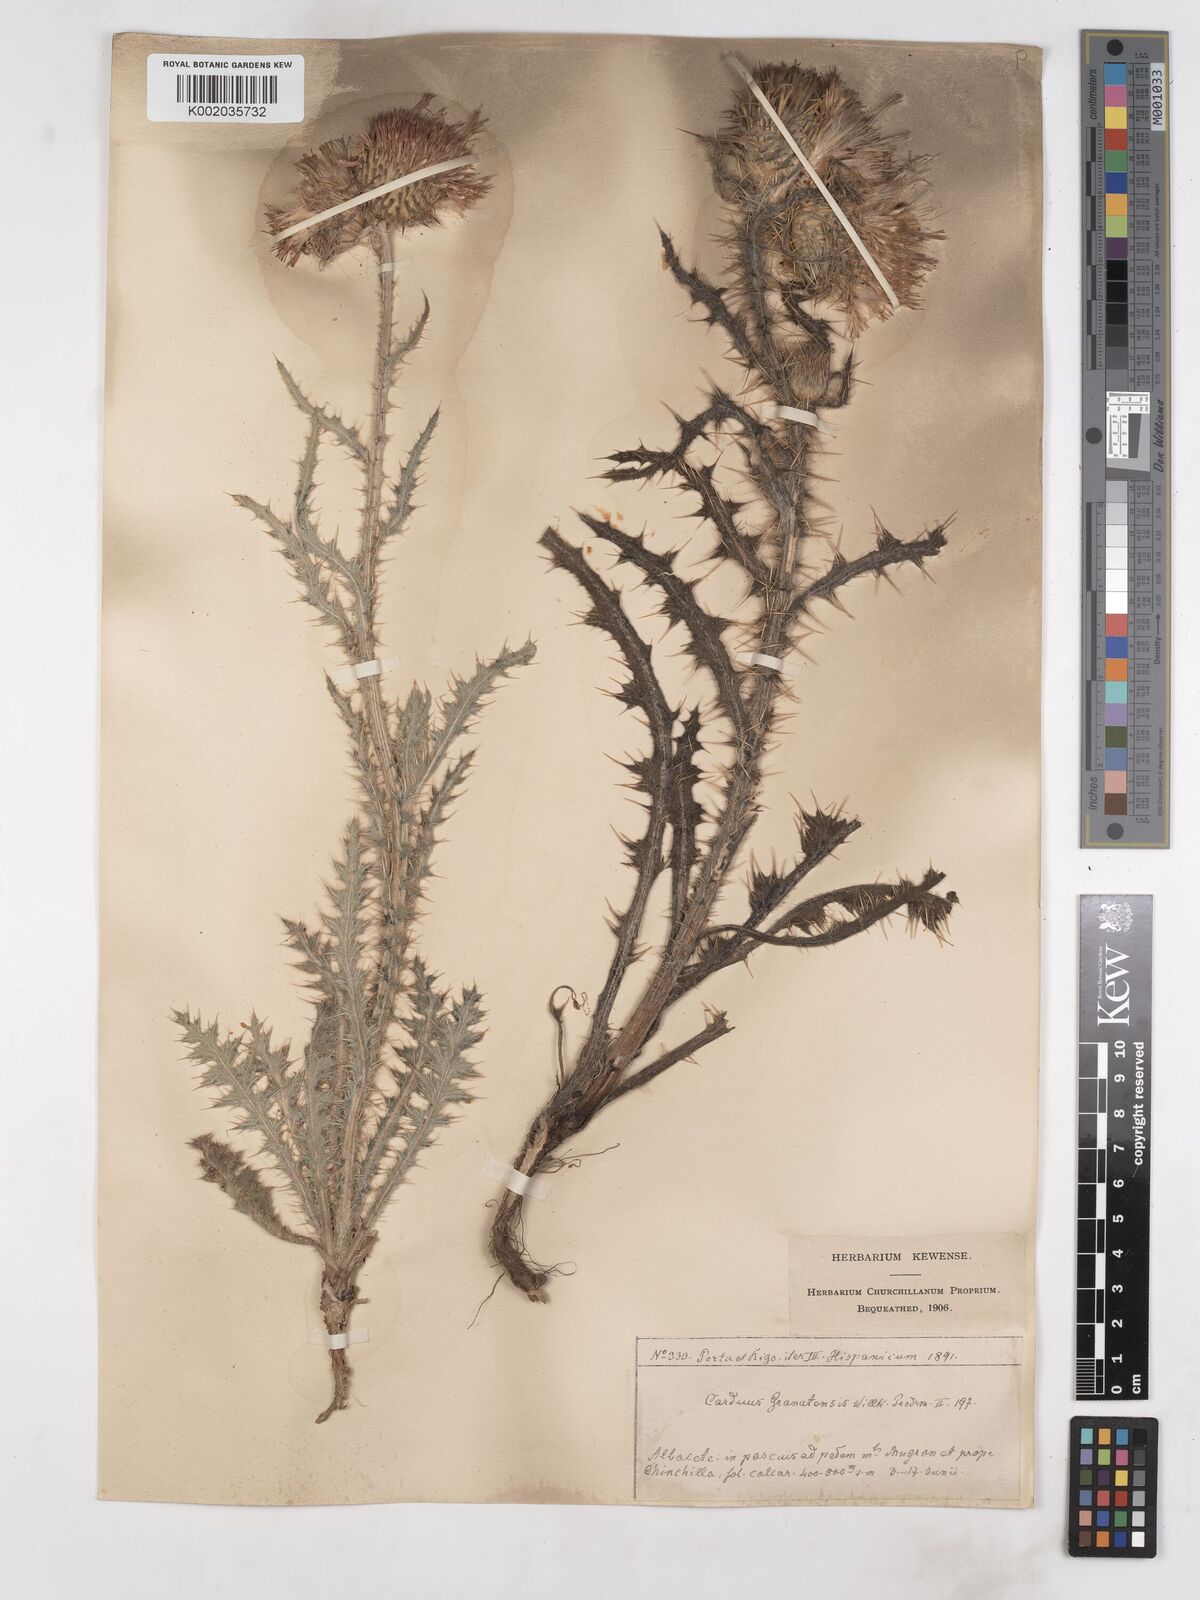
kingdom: Plantae
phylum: Tracheophyta
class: Magnoliopsida
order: Asterales
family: Asteraceae
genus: Carduus
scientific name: Carduus platypus
